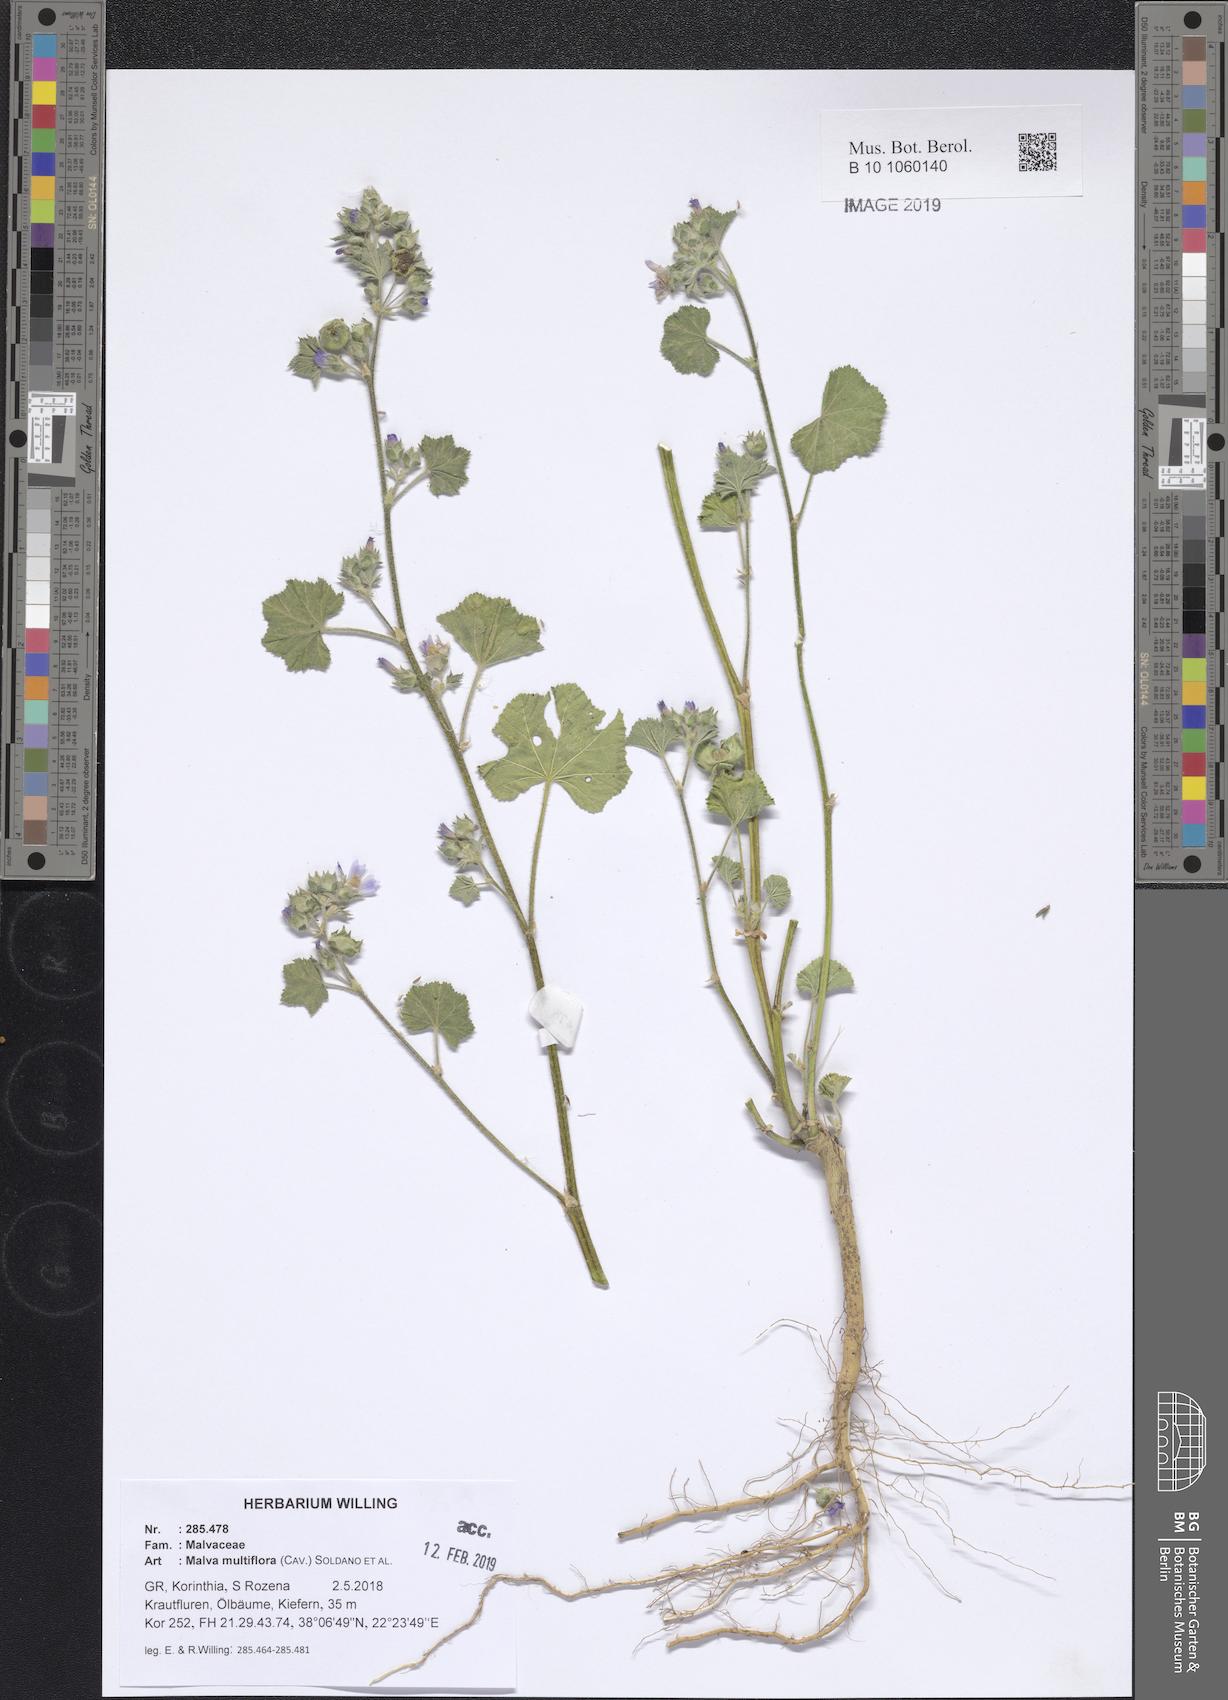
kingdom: Plantae
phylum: Tracheophyta
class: Magnoliopsida
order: Malvales
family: Malvaceae
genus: Malva
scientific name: Malva multiflora
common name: Cheeseweed
